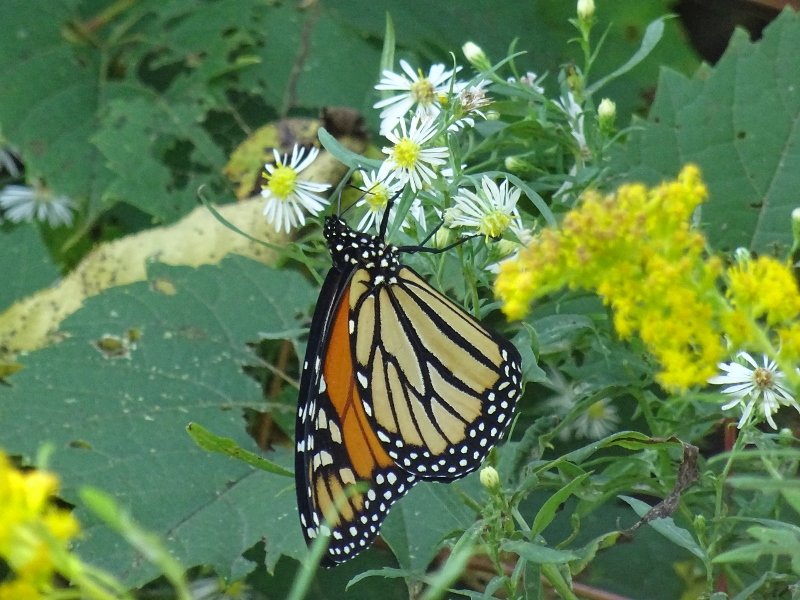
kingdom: Animalia
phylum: Arthropoda
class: Insecta
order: Lepidoptera
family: Nymphalidae
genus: Danaus
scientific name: Danaus plexippus
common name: Monarch
